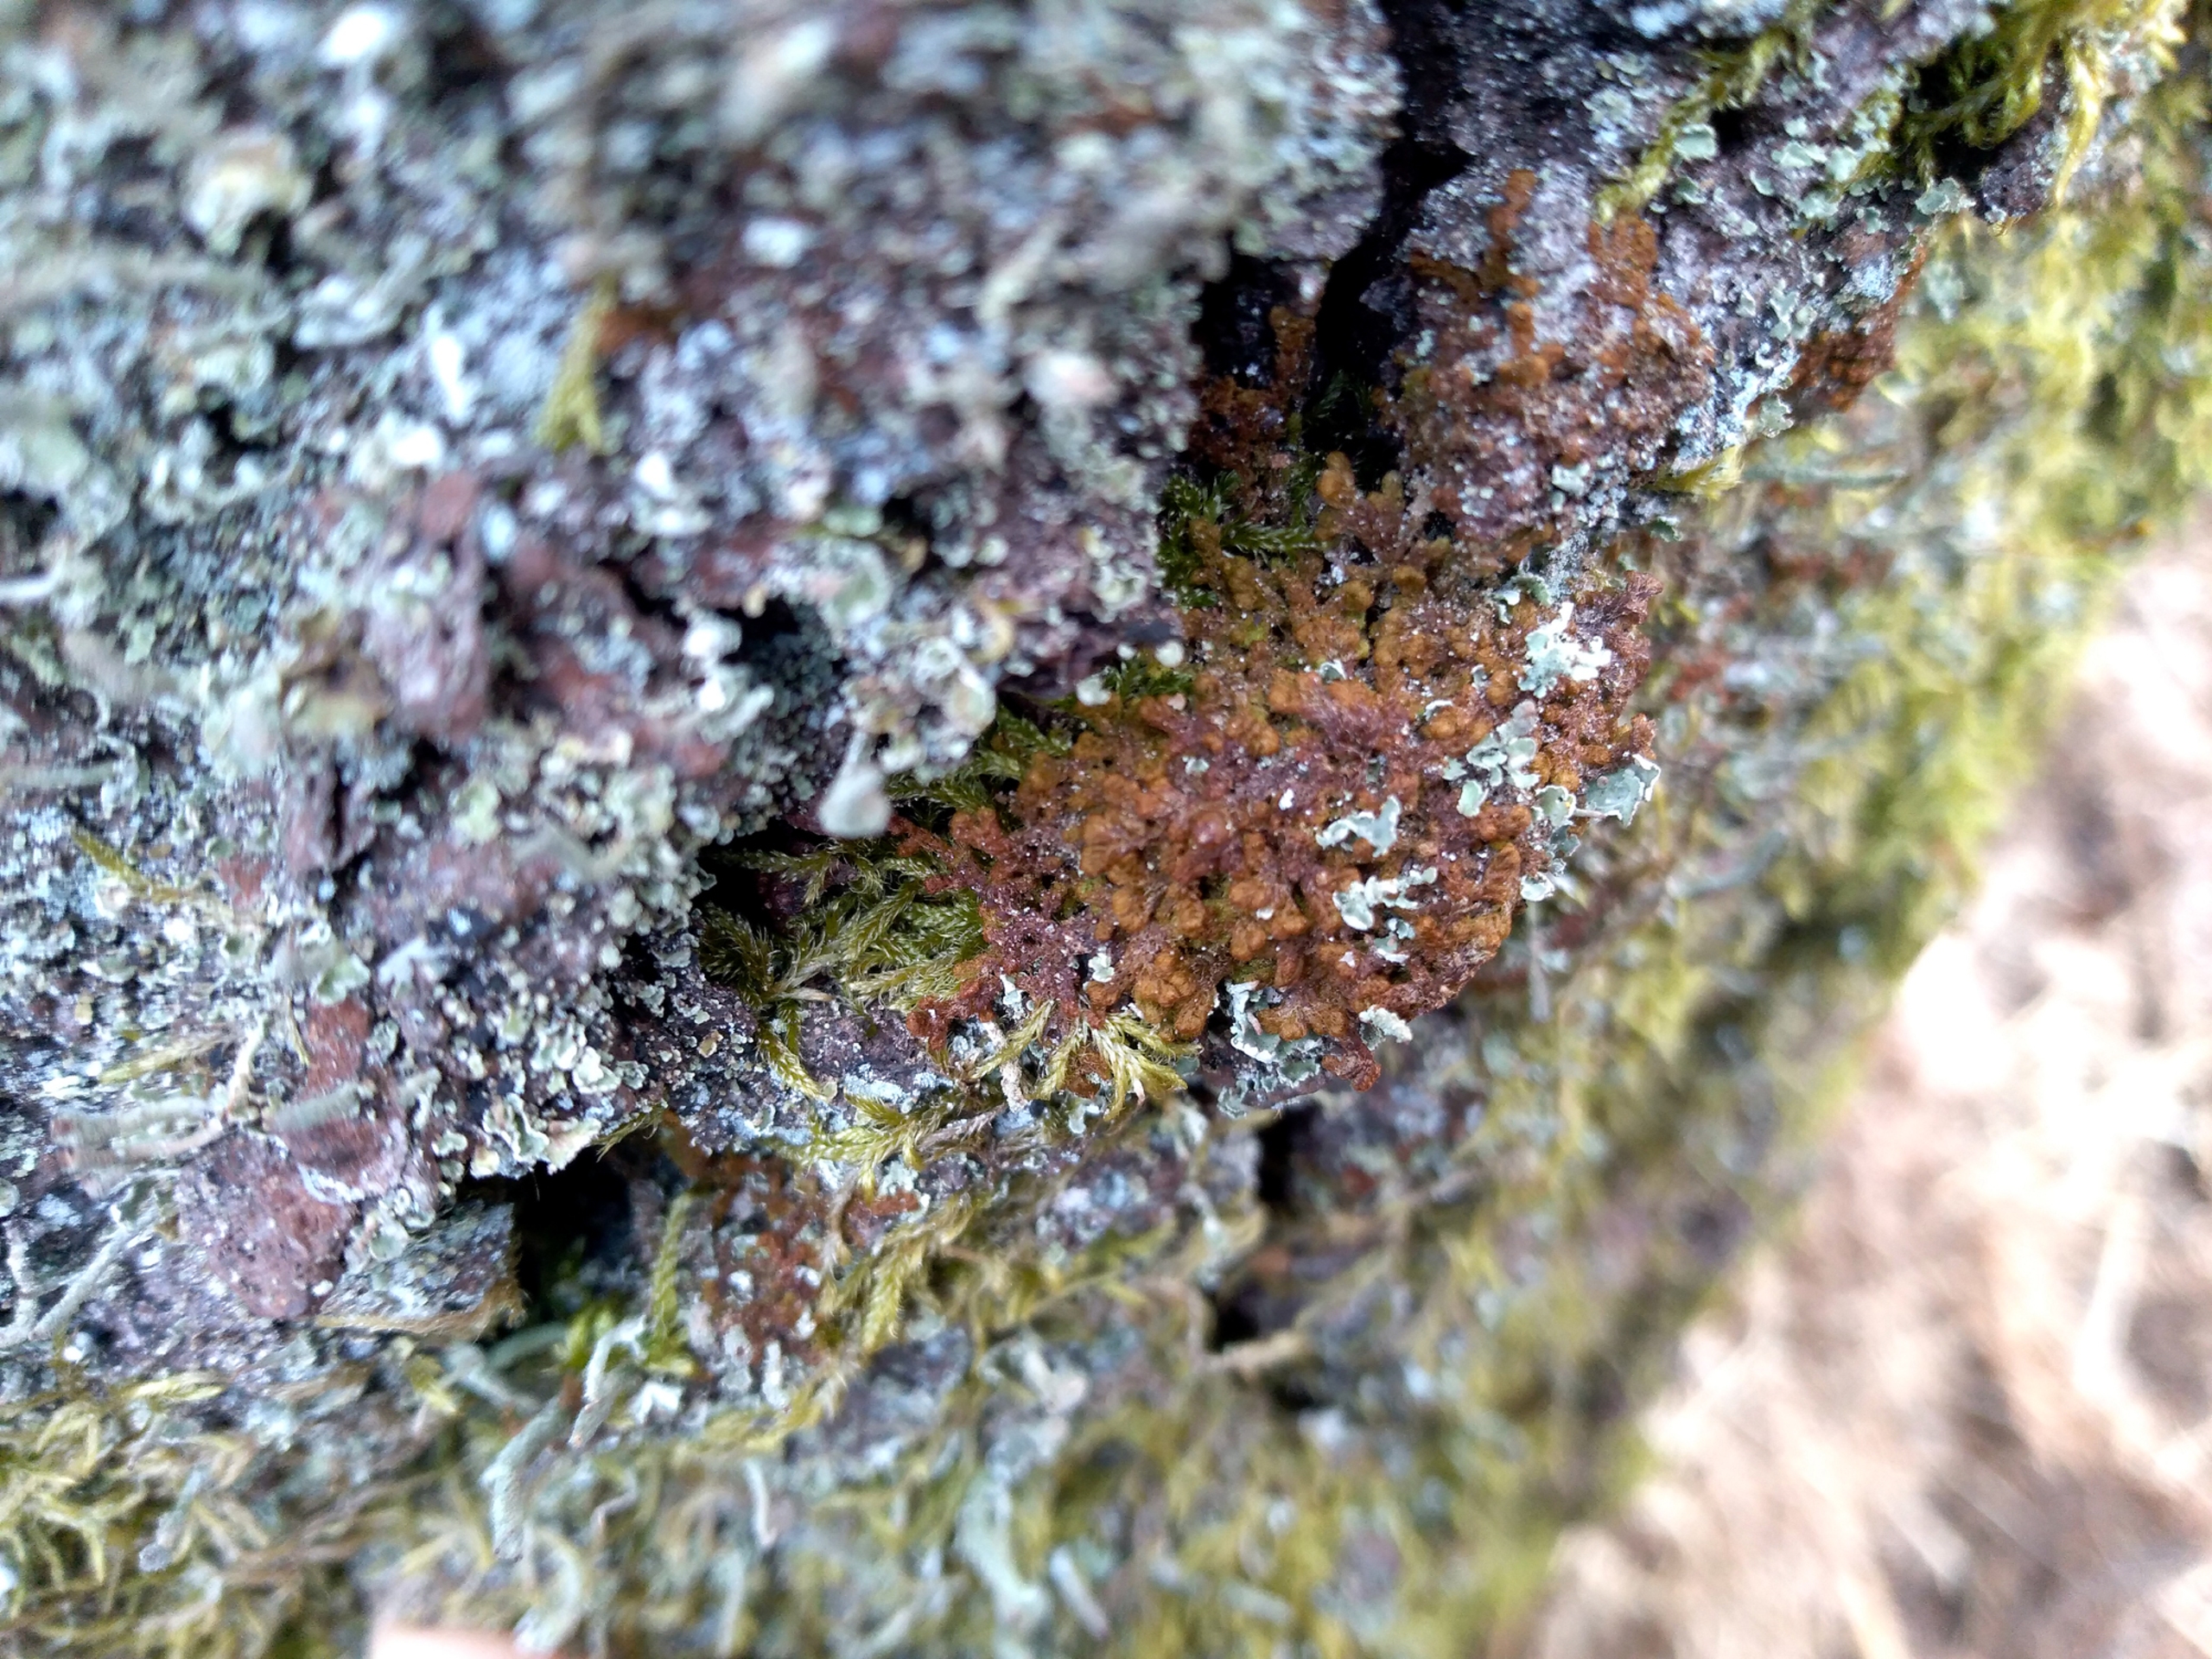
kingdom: Plantae
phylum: Marchantiophyta
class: Jungermanniopsida
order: Ptilidiales
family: Ptilidiaceae
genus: Ptilidium
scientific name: Ptilidium pulcherrimum
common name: Stub-frynsemos
